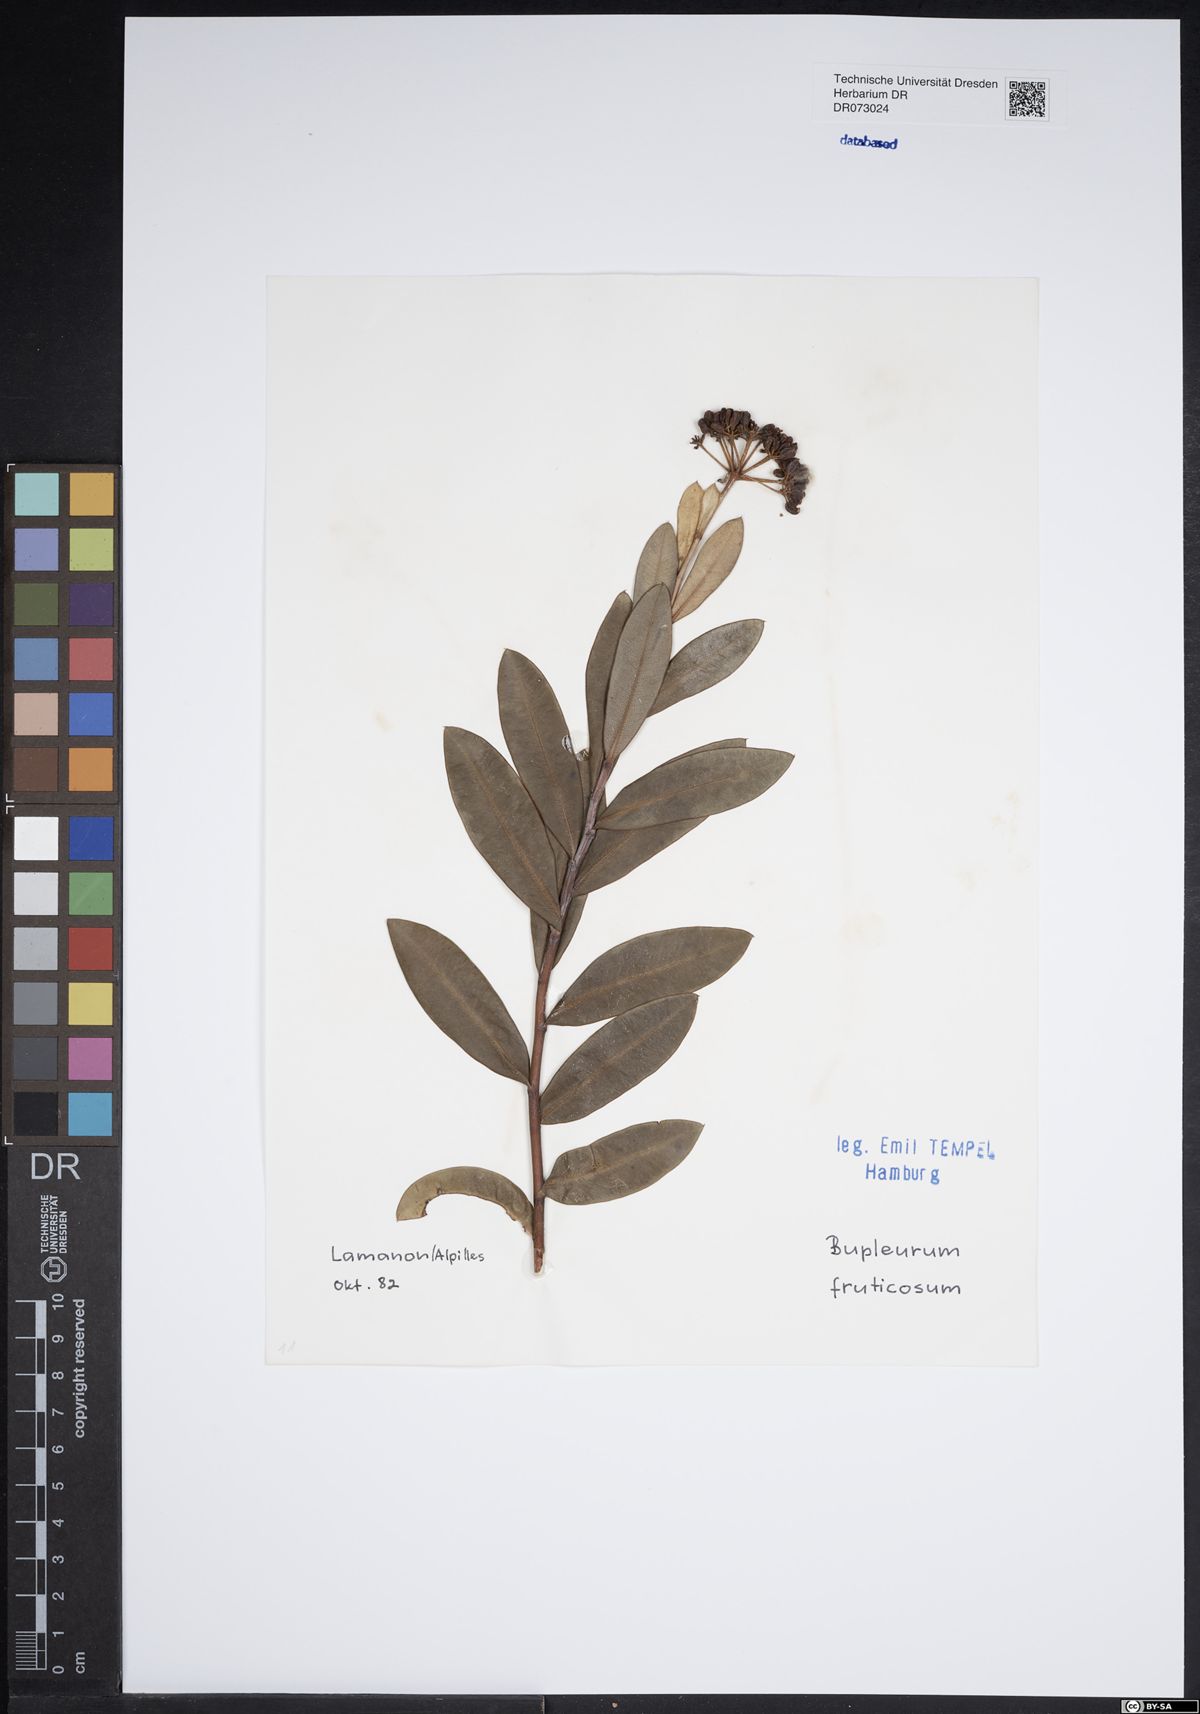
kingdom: Plantae
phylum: Tracheophyta
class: Magnoliopsida
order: Apiales
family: Apiaceae
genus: Bupleurum
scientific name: Bupleurum falcatum
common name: Sickle-leaved hare's-ear
